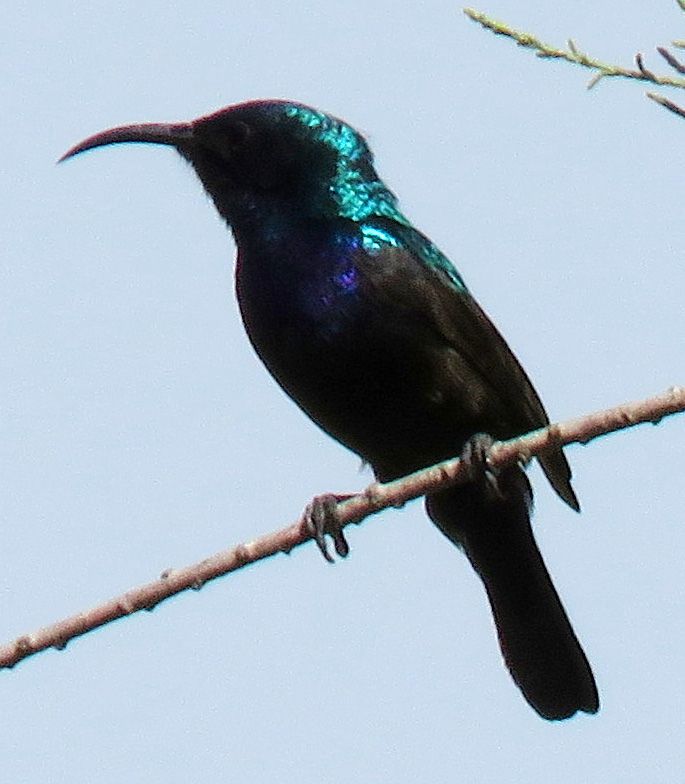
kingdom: Animalia
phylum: Chordata
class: Aves
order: Passeriformes
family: Nectariniidae
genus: Cinnyris
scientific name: Cinnyris osea
